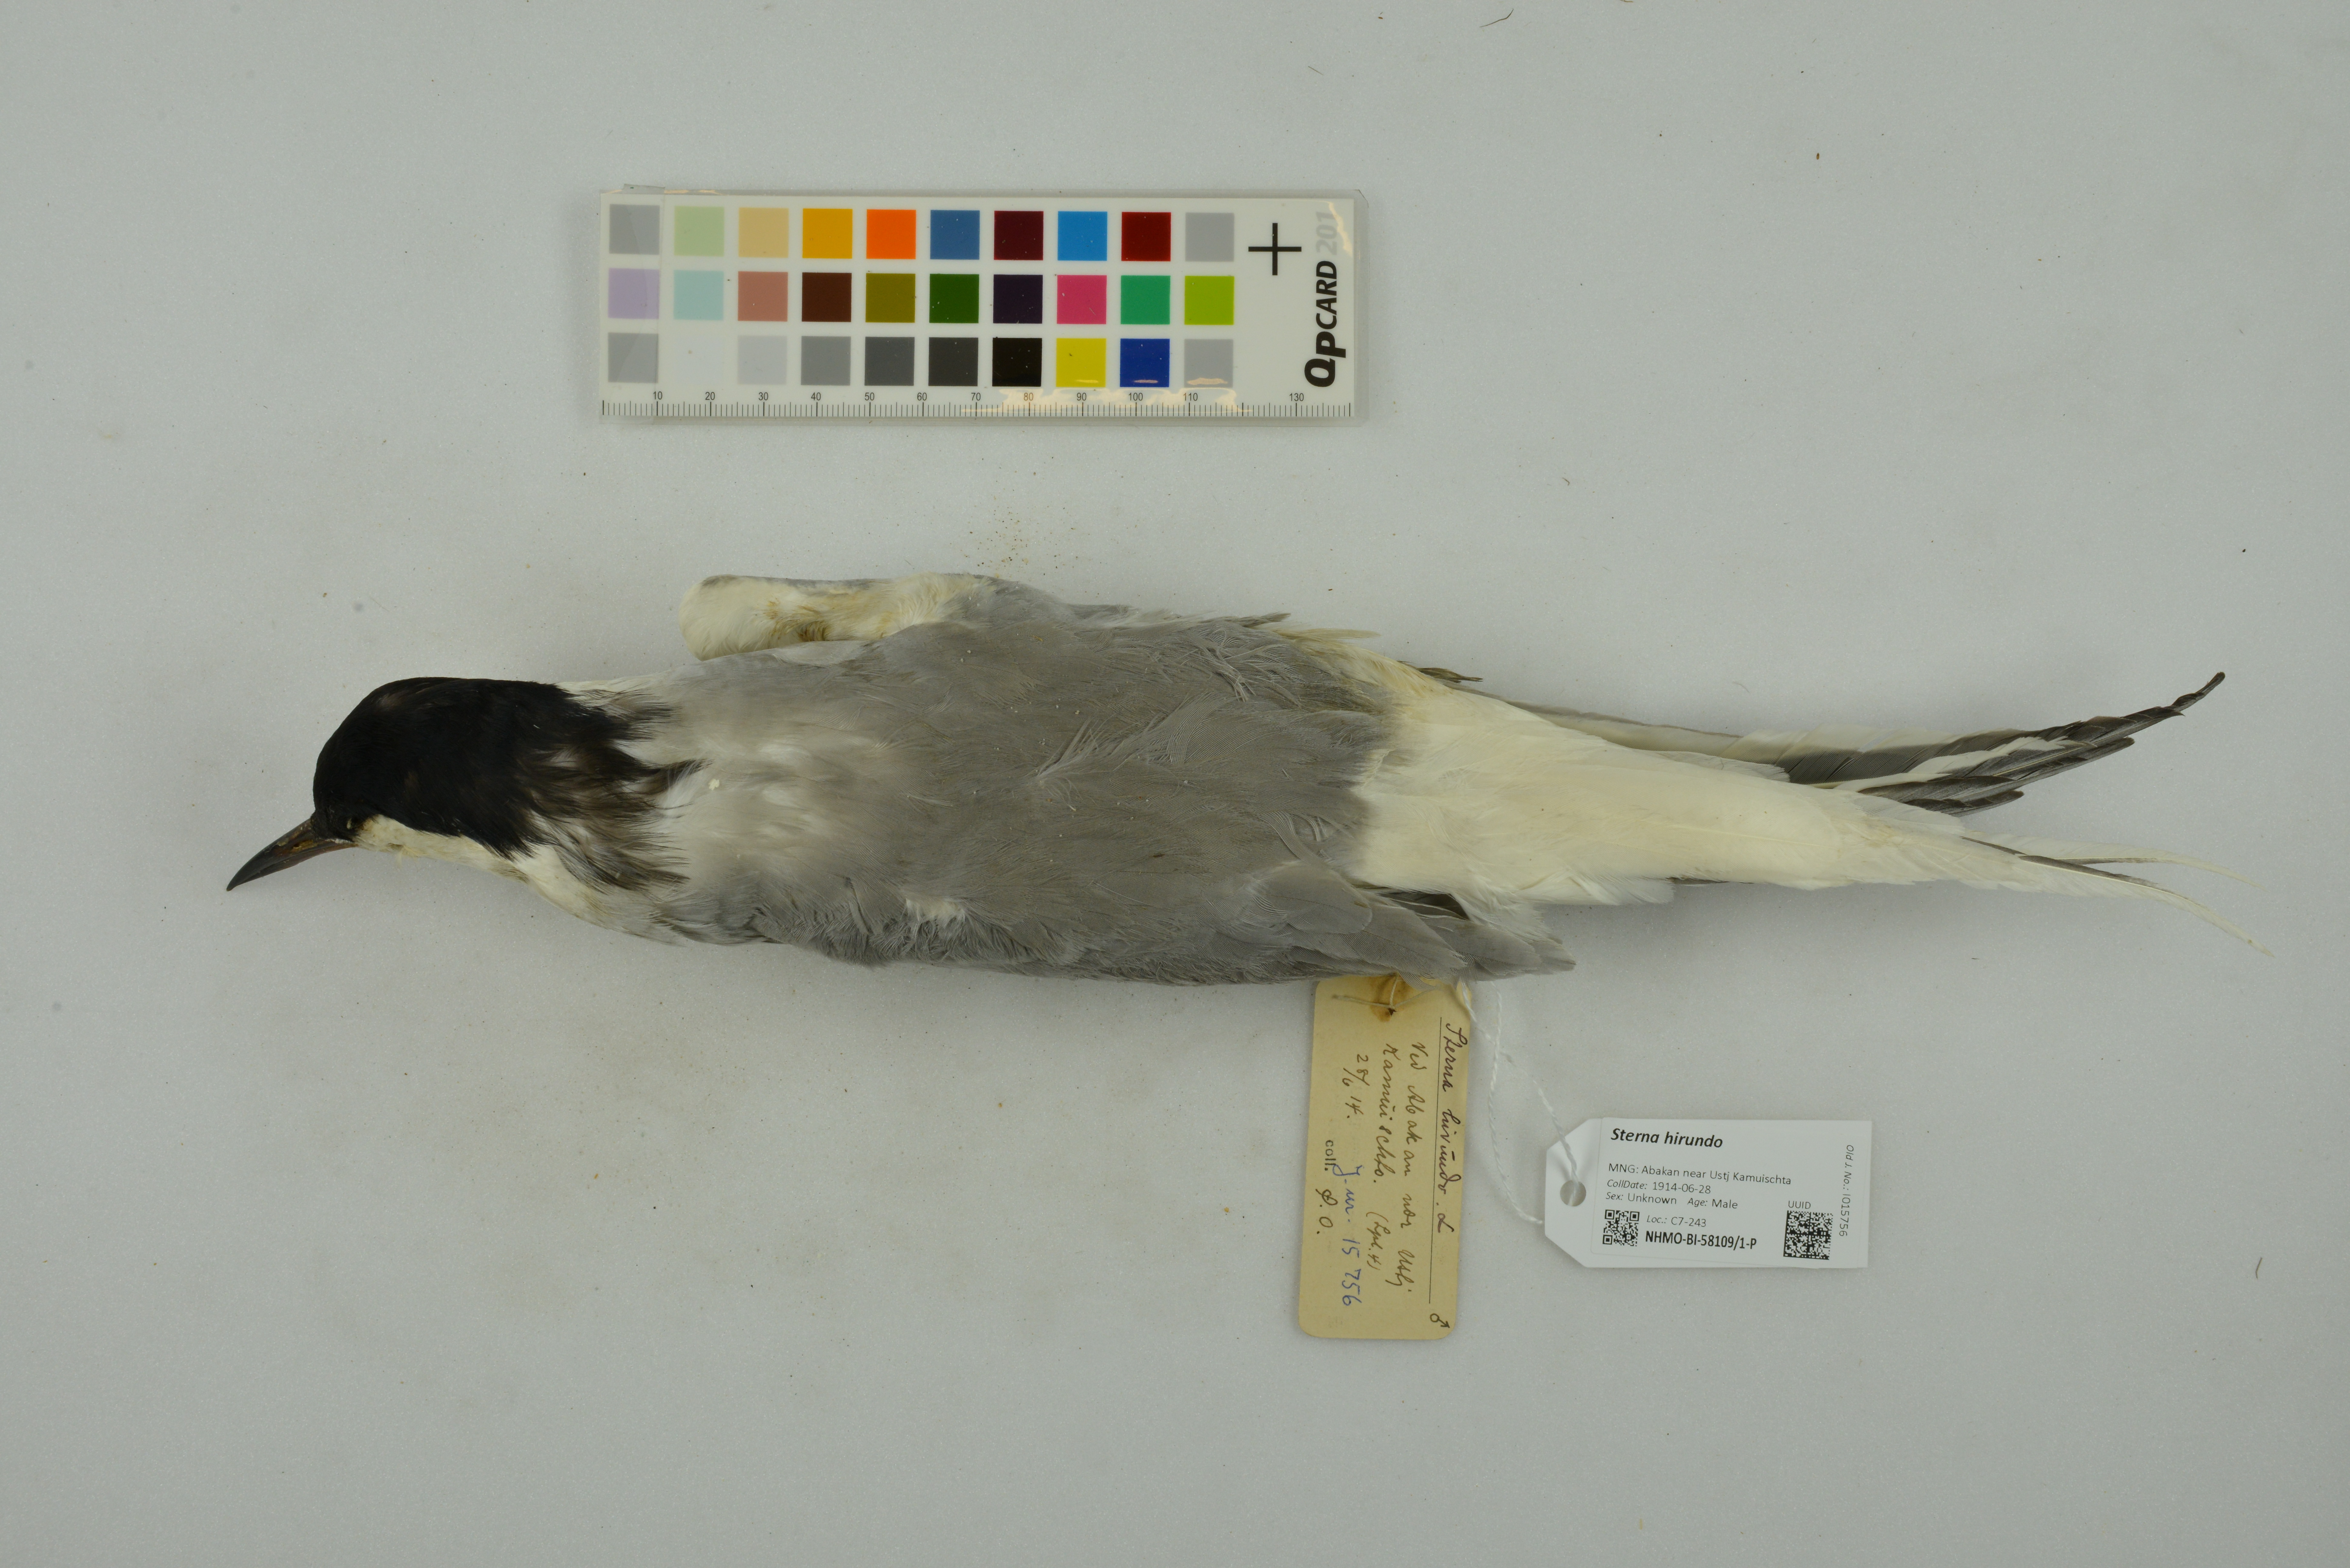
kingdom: Animalia
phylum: Chordata
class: Aves
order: Charadriiformes
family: Laridae
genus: Sterna
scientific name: Sterna hirundo
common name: Common tern
